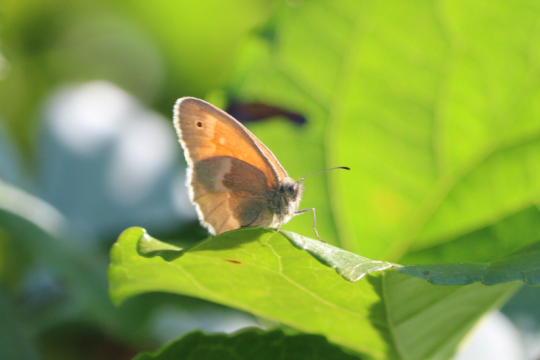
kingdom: Animalia
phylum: Arthropoda
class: Insecta
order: Lepidoptera
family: Nymphalidae
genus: Coenonympha
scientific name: Coenonympha california
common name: California Ringlet
